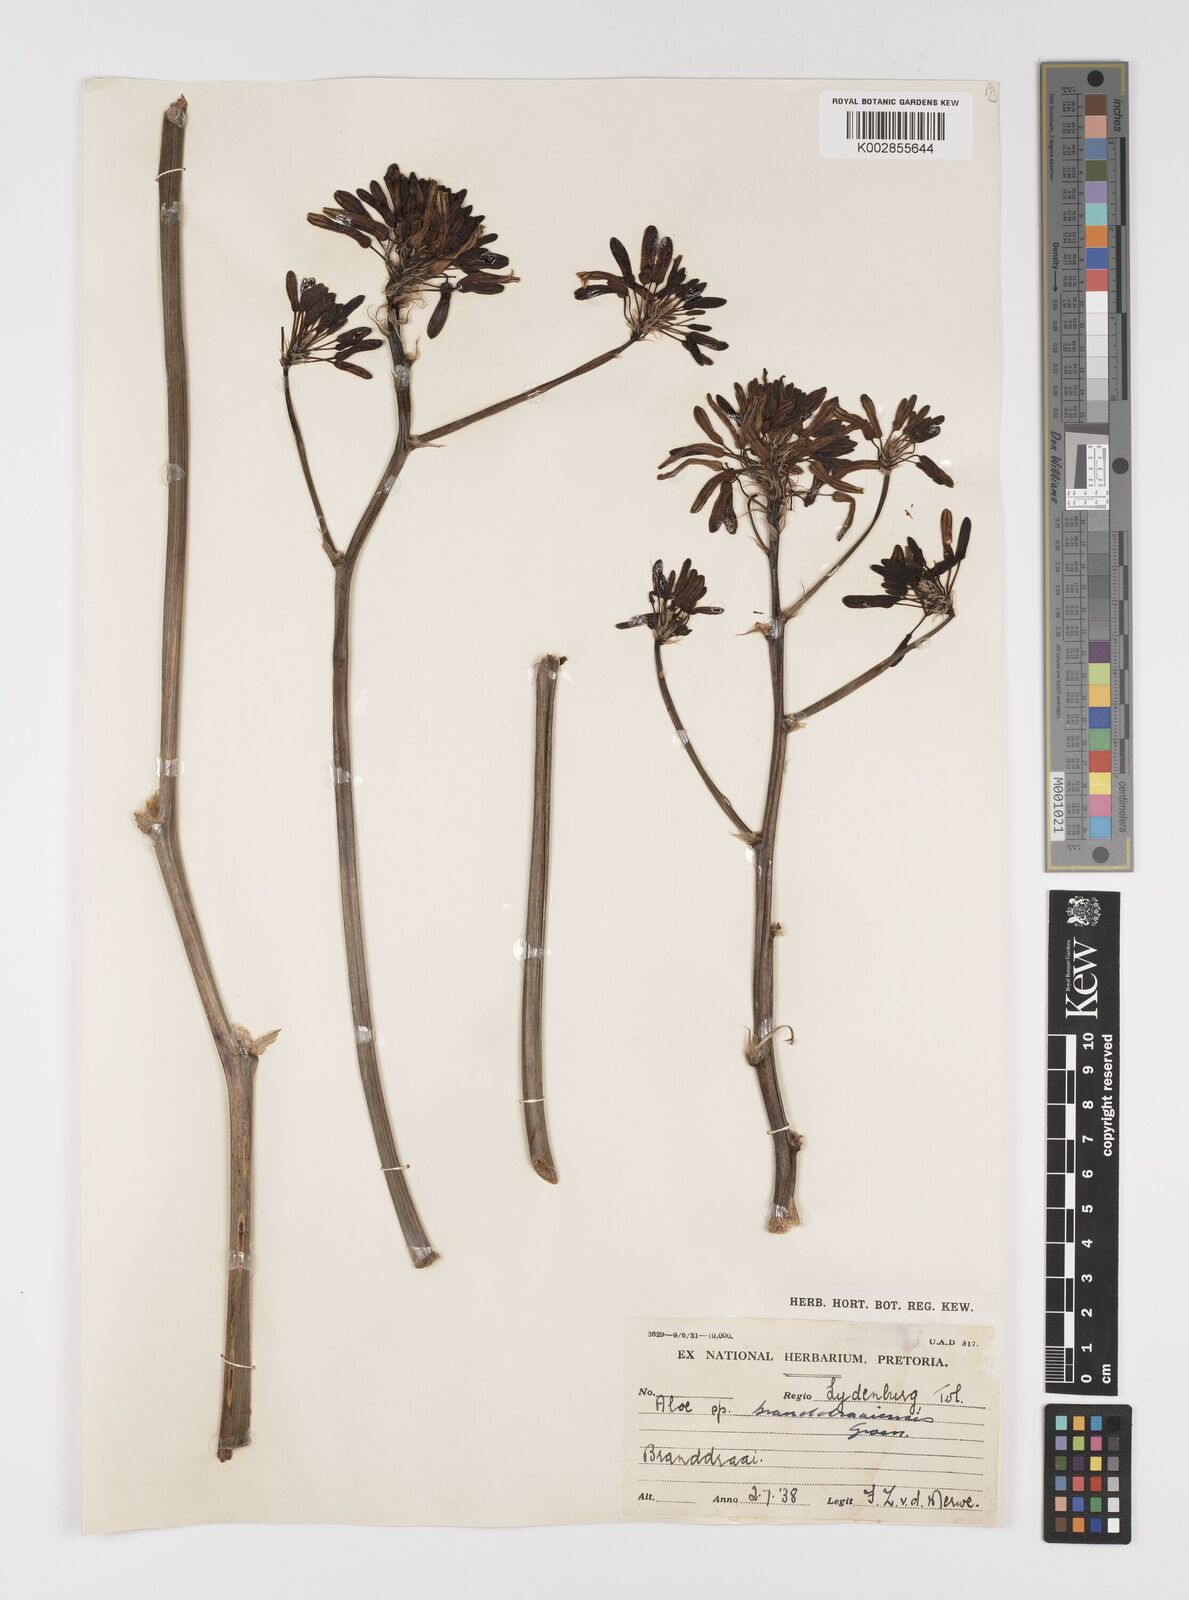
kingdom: Plantae
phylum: Tracheophyta
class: Liliopsida
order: Asparagales
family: Asphodelaceae
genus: Aloe
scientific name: Aloe branddraaiensis
